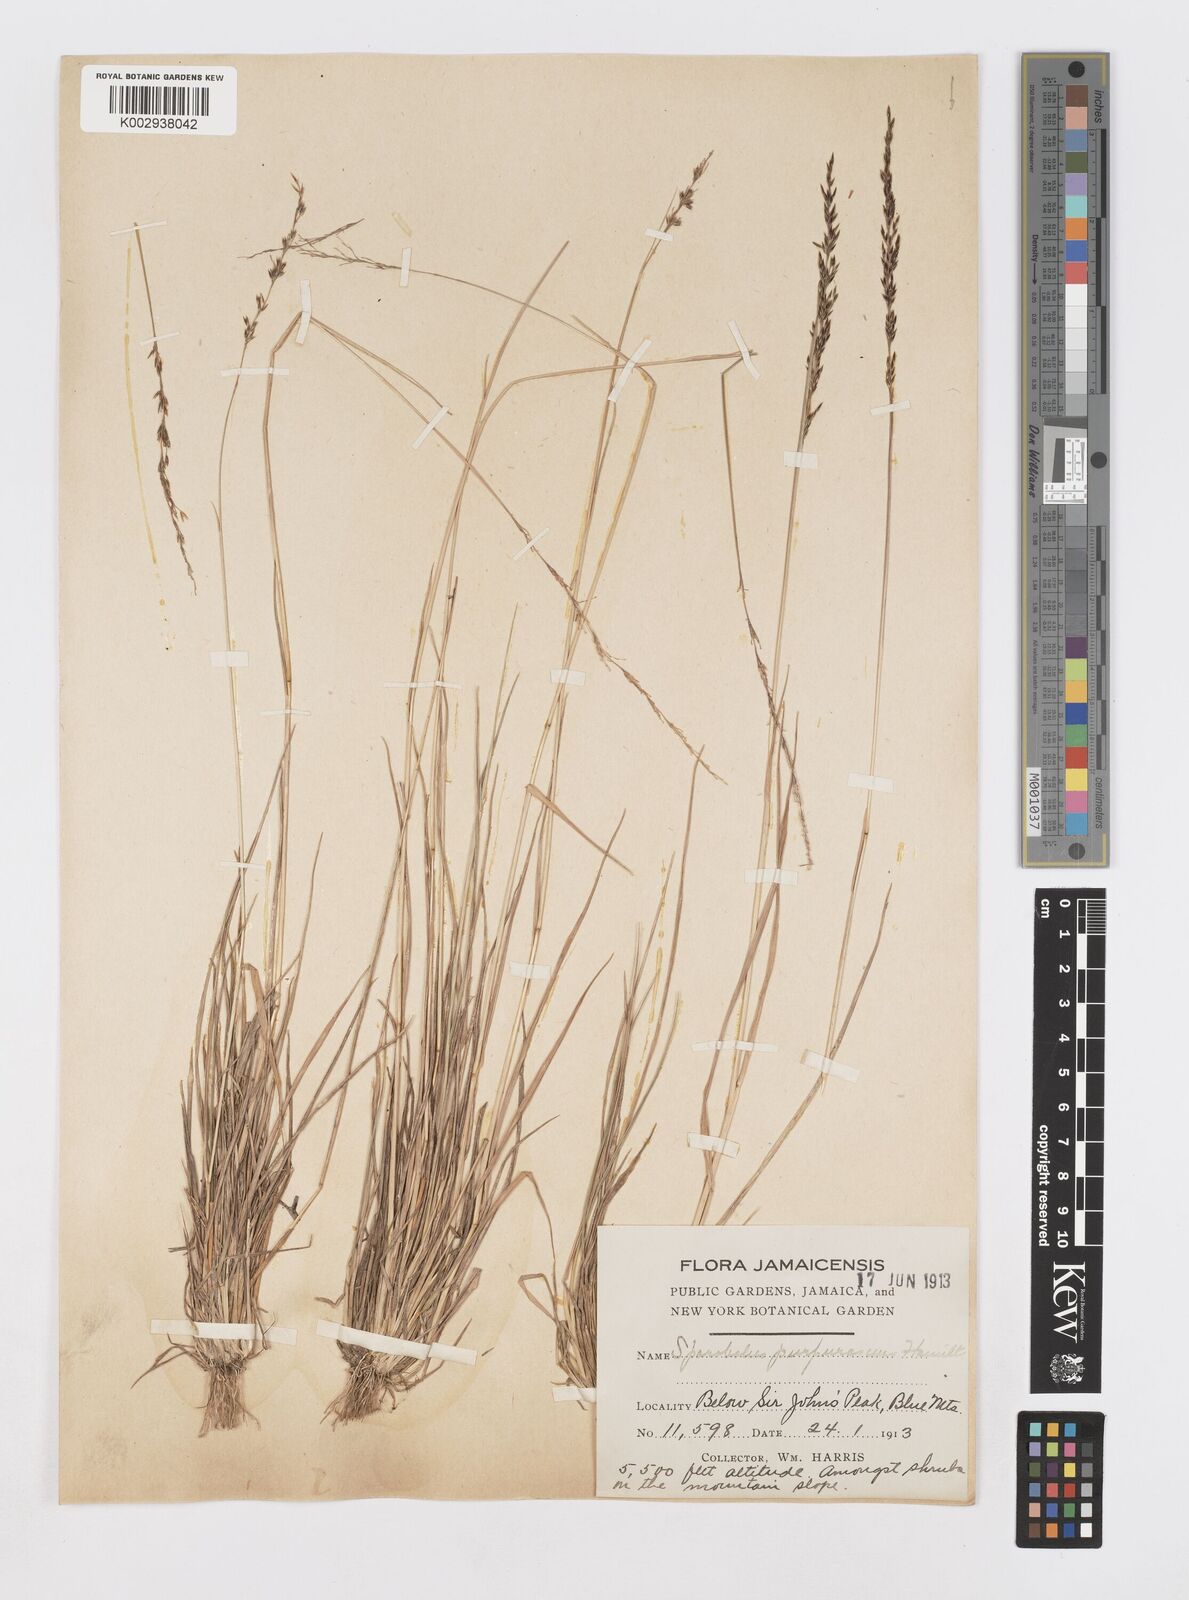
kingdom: Plantae
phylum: Tracheophyta
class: Liliopsida
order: Poales
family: Poaceae
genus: Sporobolus
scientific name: Sporobolus purpurascens
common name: Purple dropseed
